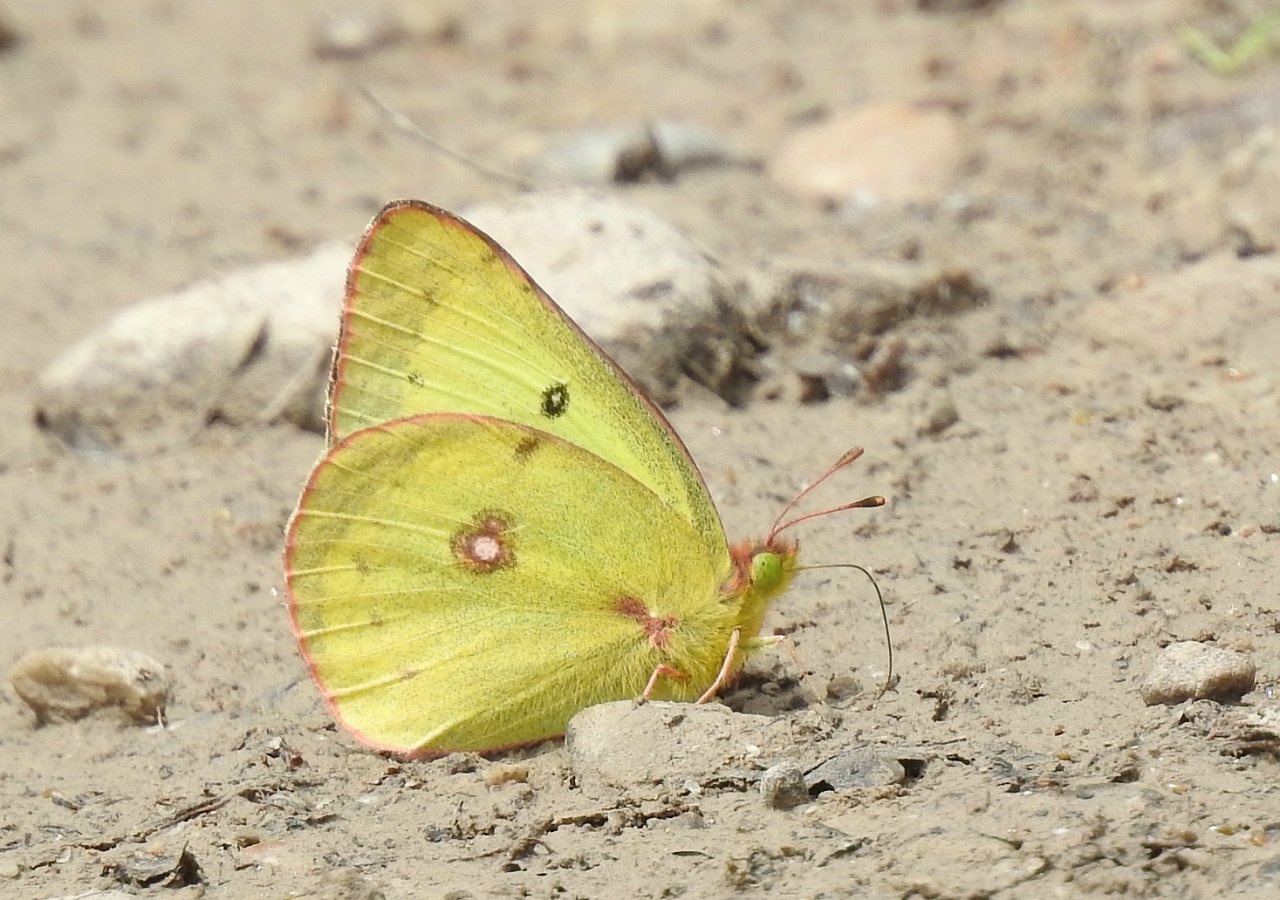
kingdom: Animalia
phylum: Arthropoda
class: Insecta
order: Lepidoptera
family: Pieridae
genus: Colias
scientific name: Colias philodice
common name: Clouded Sulphur
